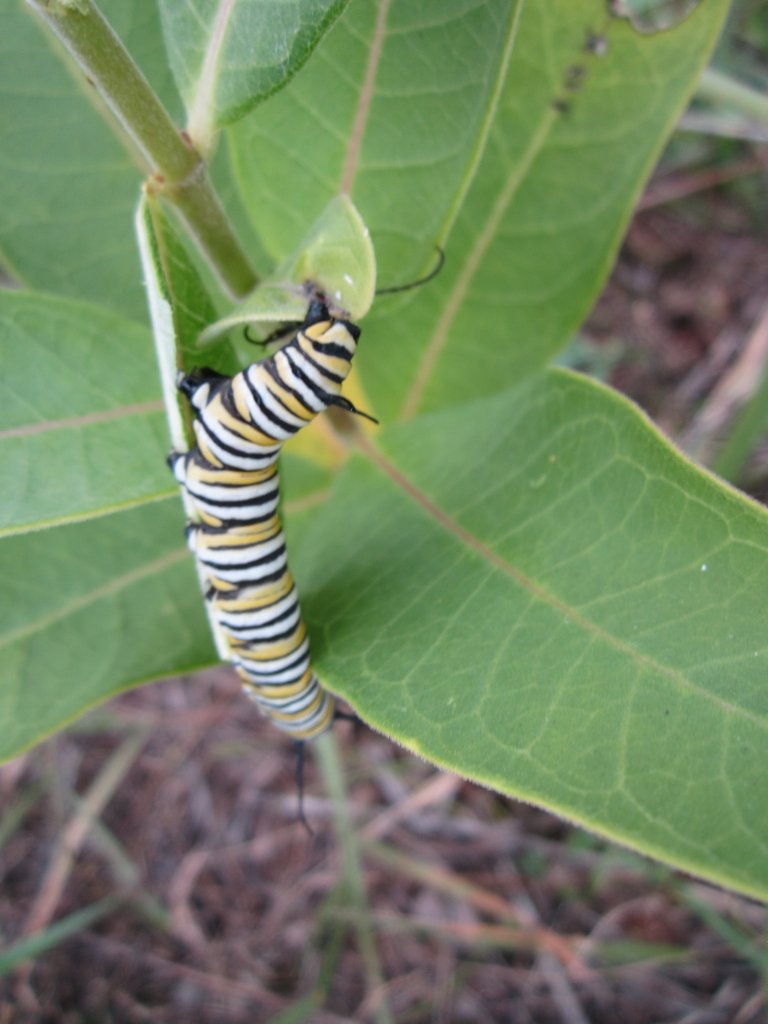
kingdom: Animalia
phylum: Arthropoda
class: Insecta
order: Lepidoptera
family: Nymphalidae
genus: Danaus
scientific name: Danaus plexippus
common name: Monarch
